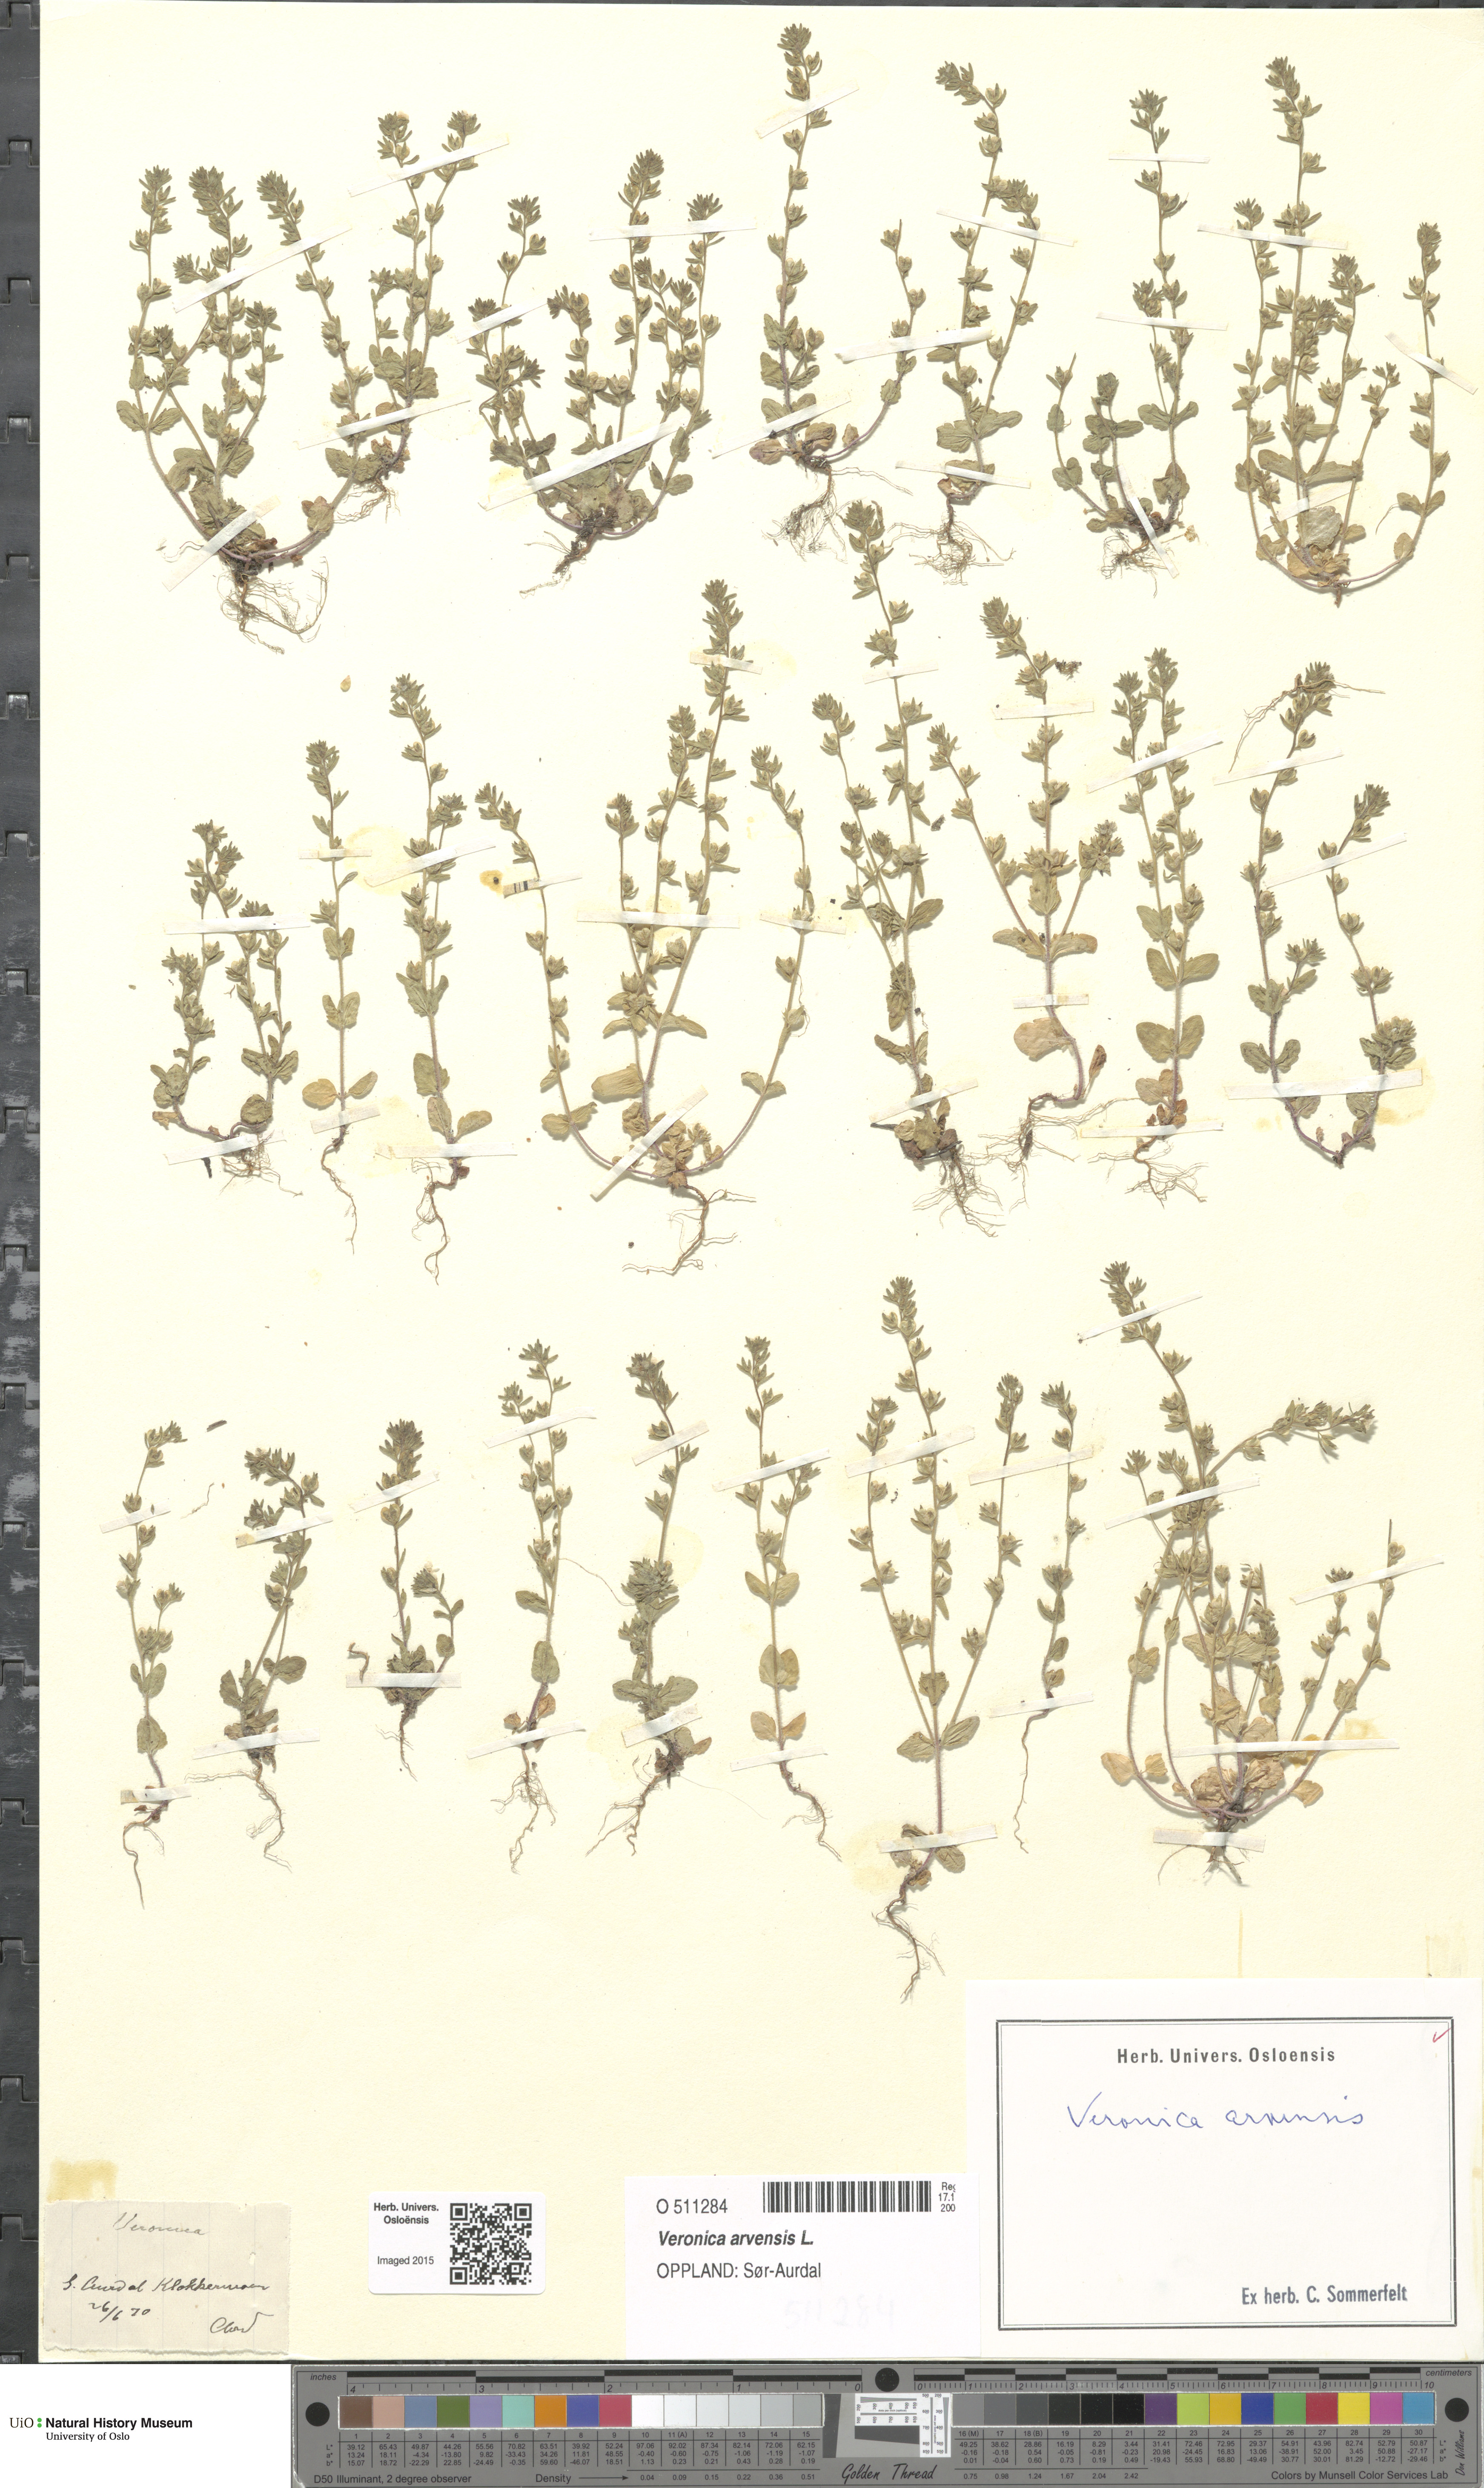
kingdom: Plantae
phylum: Tracheophyta
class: Magnoliopsida
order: Lamiales
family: Plantaginaceae
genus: Veronica
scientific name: Veronica arvensis
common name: Corn speedwell
